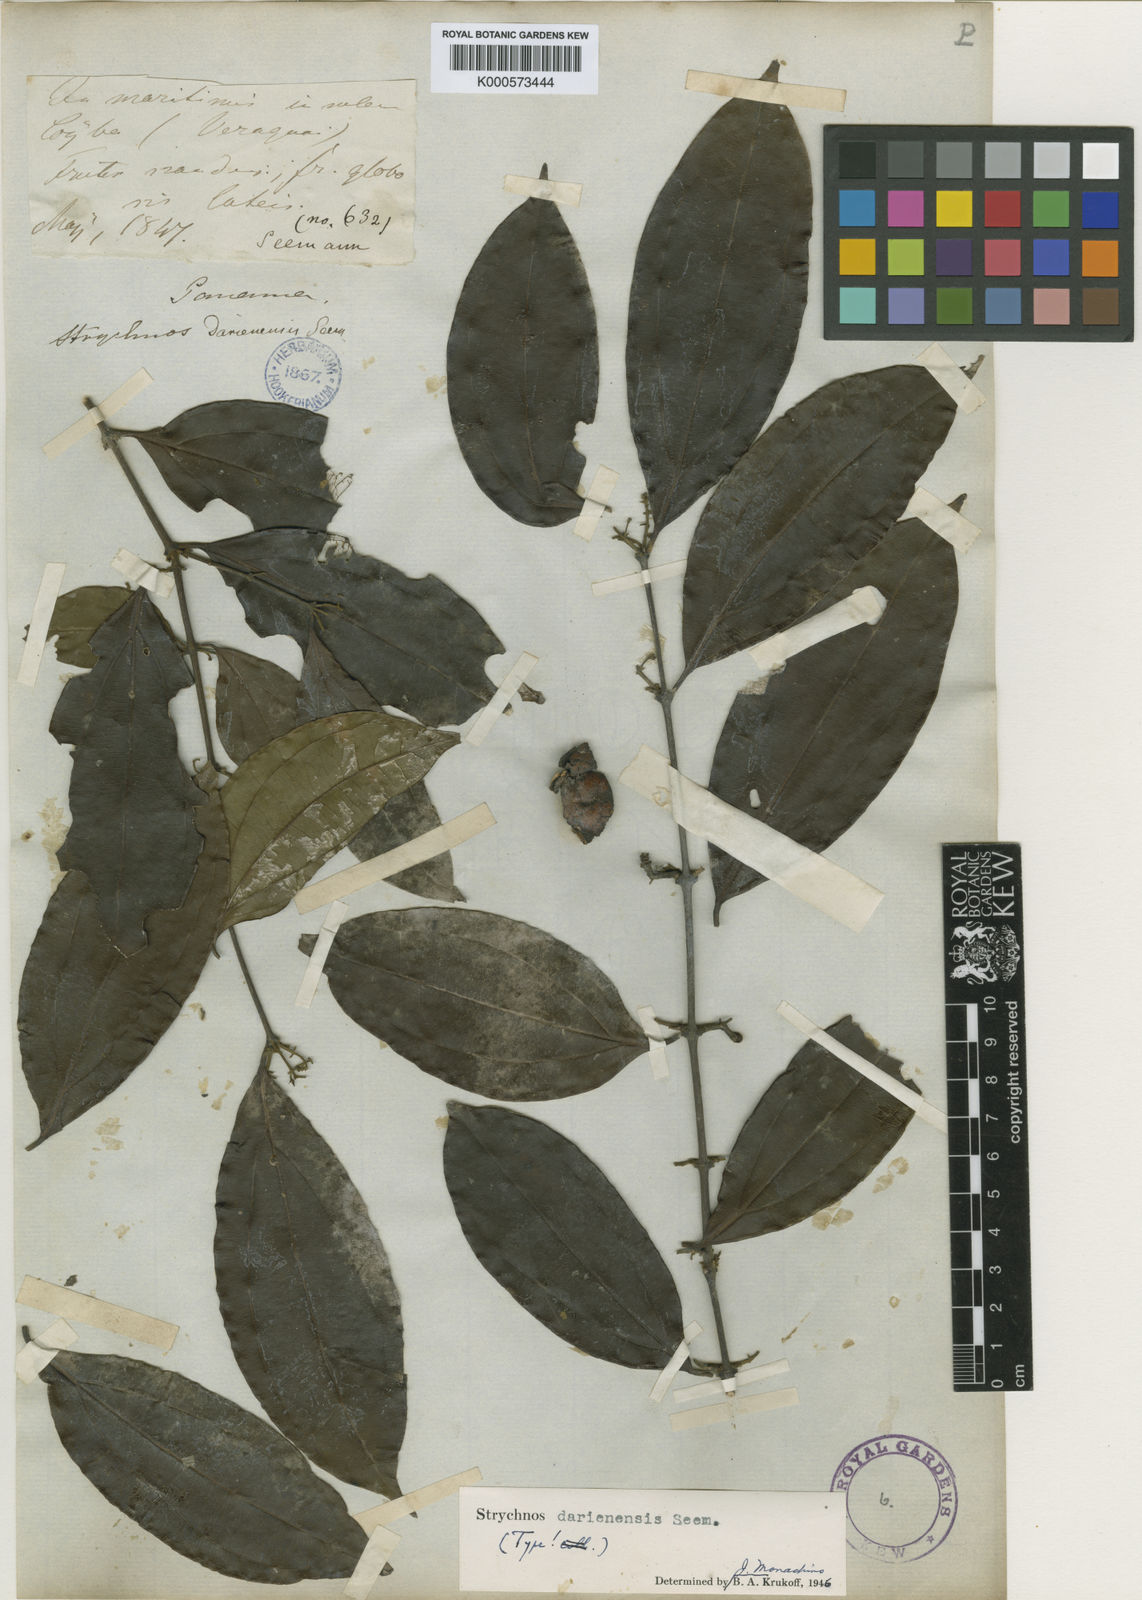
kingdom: Plantae
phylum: Tracheophyta
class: Magnoliopsida
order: Gentianales
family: Loganiaceae
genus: Strychnos
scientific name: Strychnos darienensis
